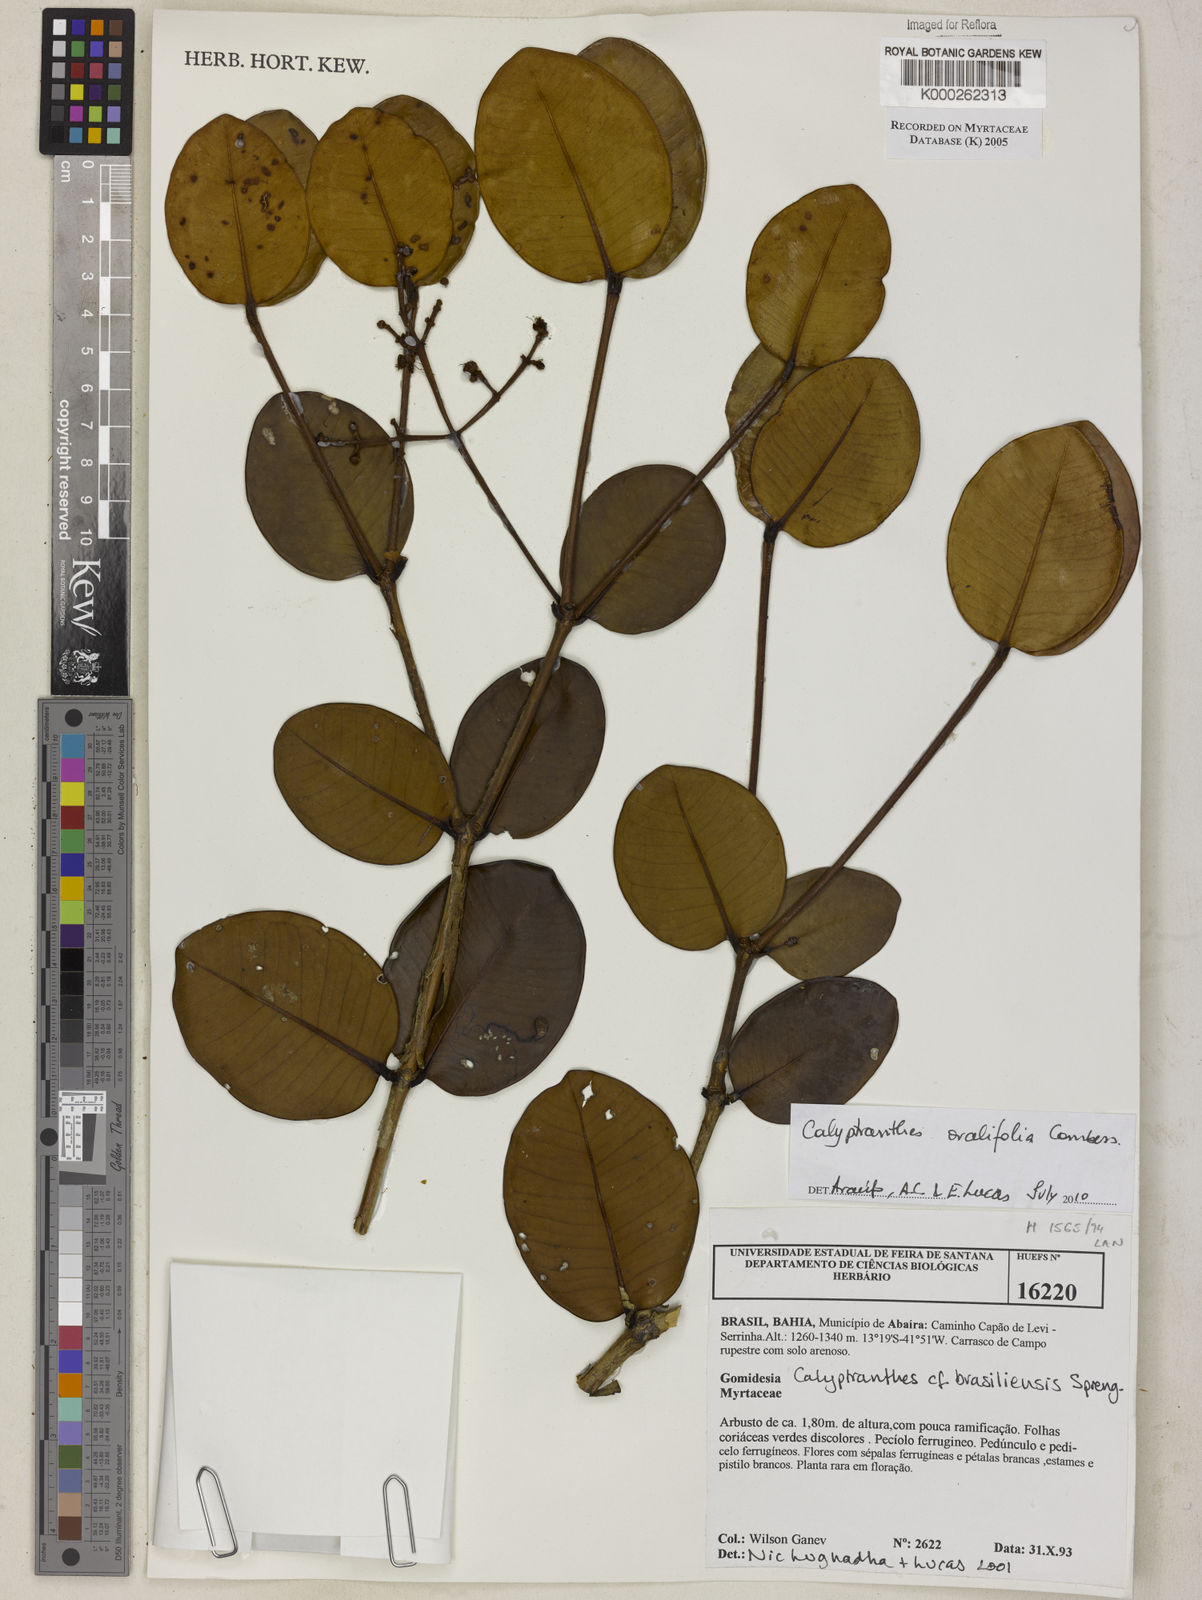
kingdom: Plantae
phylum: Tracheophyta
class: Magnoliopsida
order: Myrtales
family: Myrtaceae
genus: Myrcia
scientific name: Myrcia neobrasiliensis
